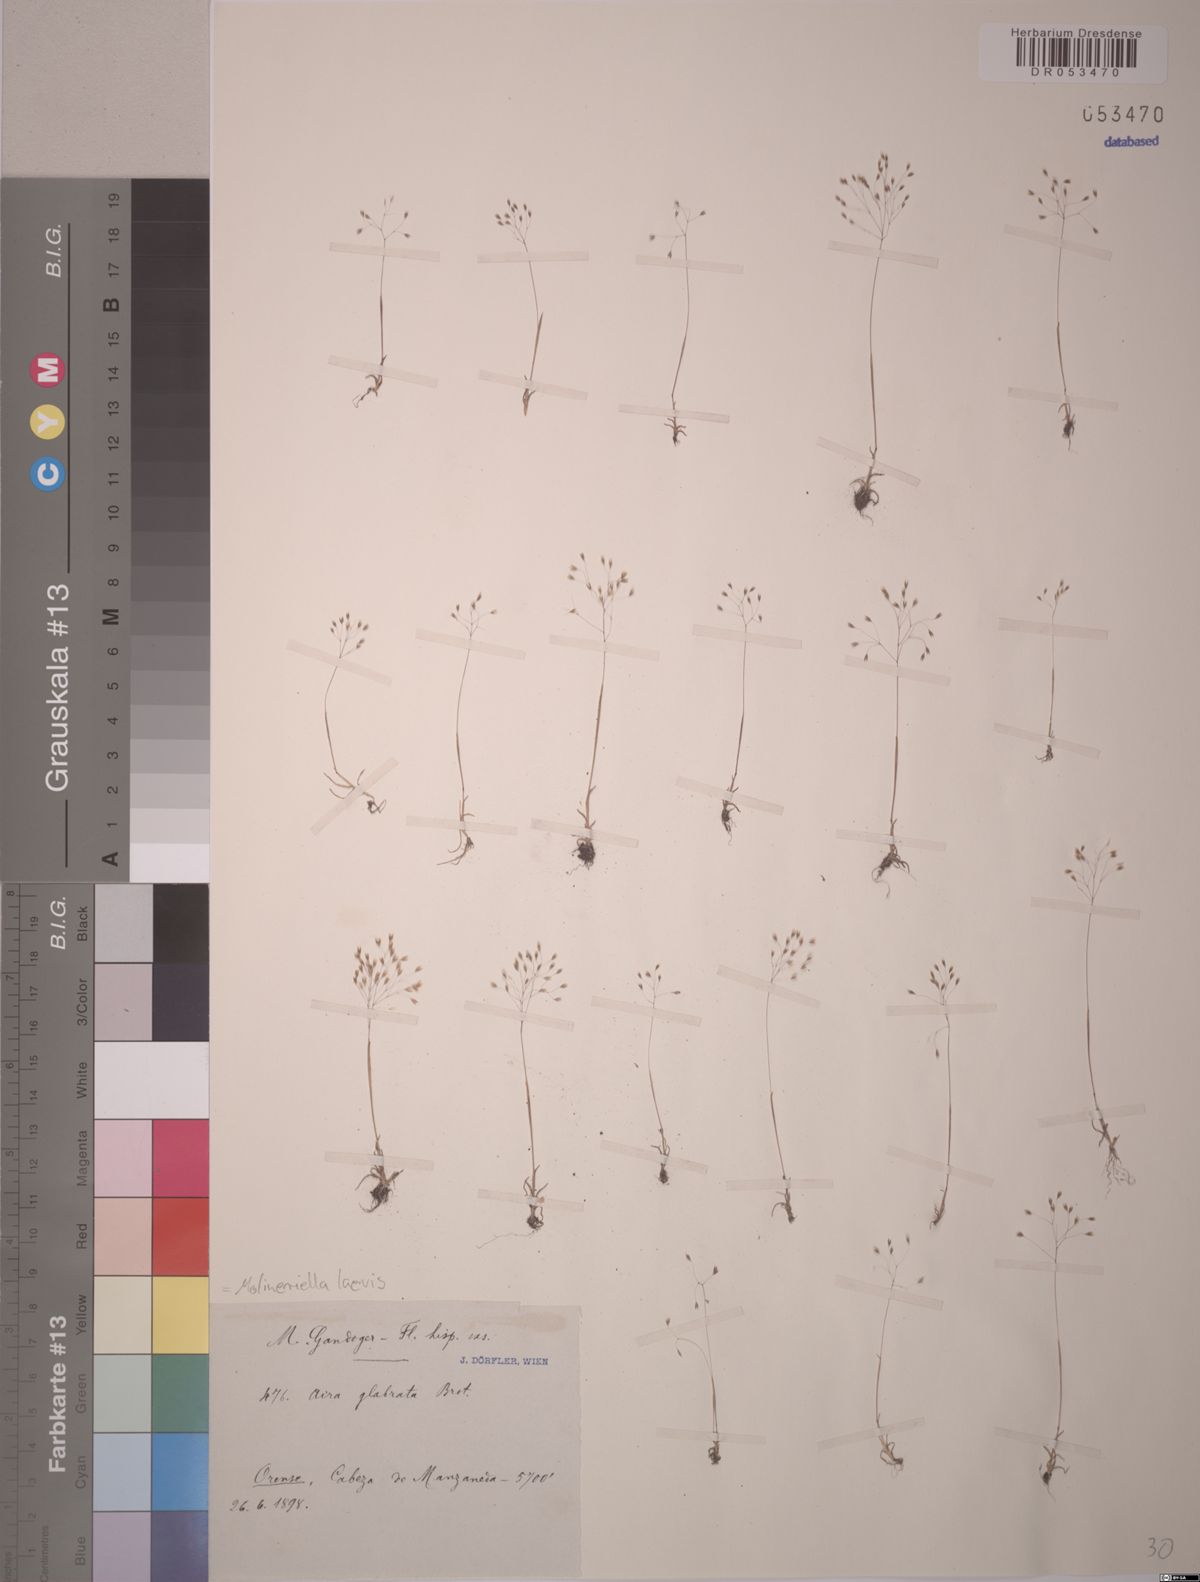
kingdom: Plantae
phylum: Tracheophyta
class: Liliopsida
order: Poales
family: Poaceae
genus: Molineriella
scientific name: Molineriella laevis
